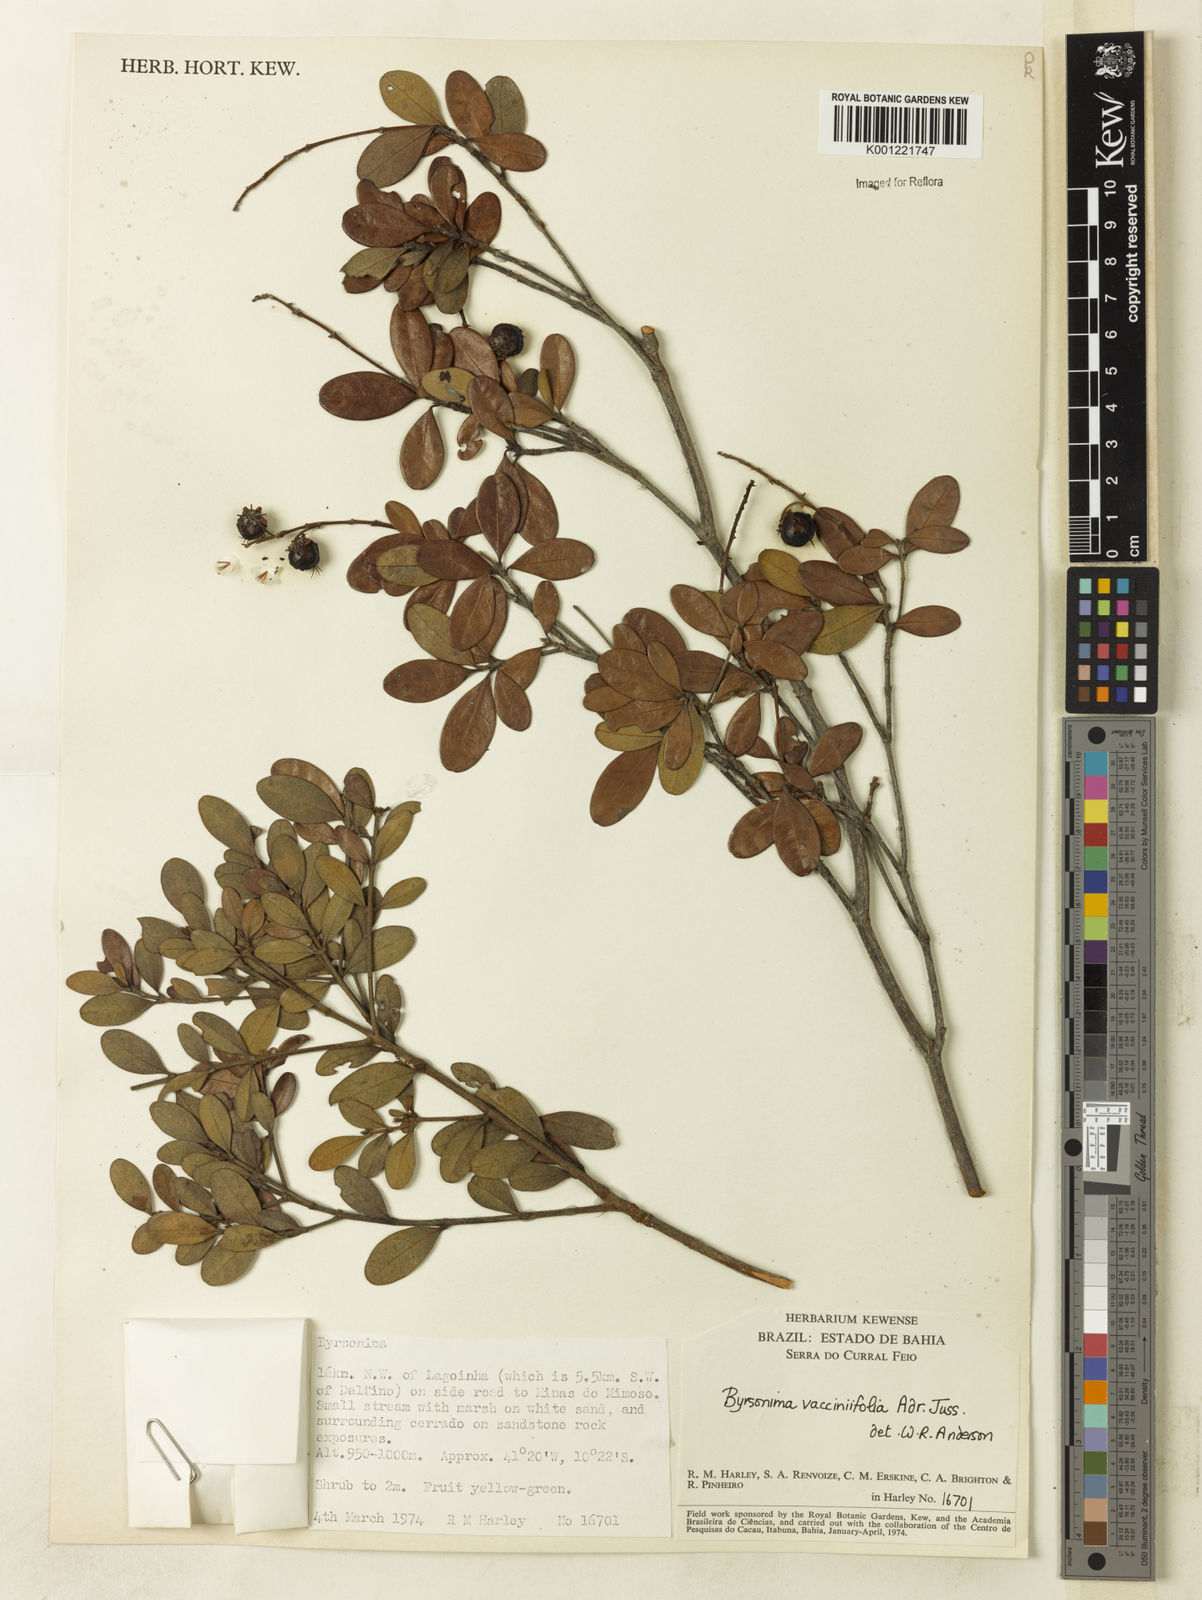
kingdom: Plantae
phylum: Tracheophyta
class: Magnoliopsida
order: Malpighiales
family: Malpighiaceae
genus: Byrsonima
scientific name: Byrsonima vacciniifolia
